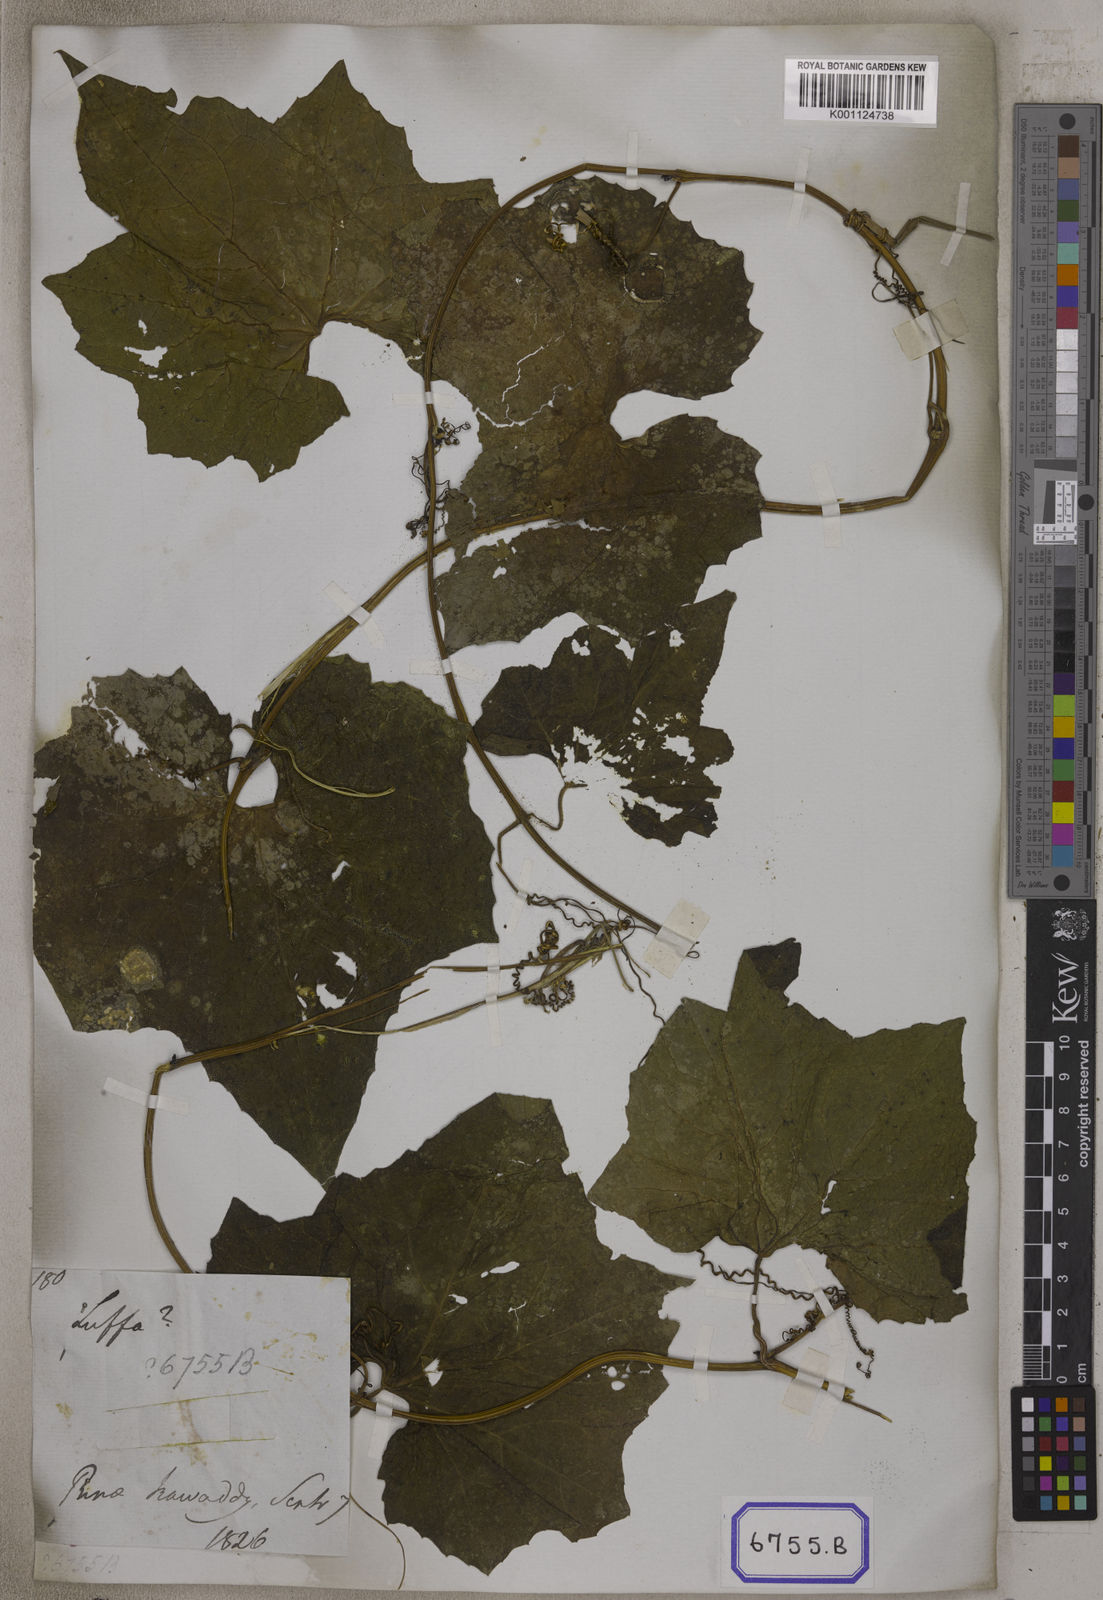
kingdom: Plantae
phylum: Tracheophyta
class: Magnoliopsida
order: Cucurbitales
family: Cucurbitaceae
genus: Cucumis
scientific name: Cucumis melo
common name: Melon
